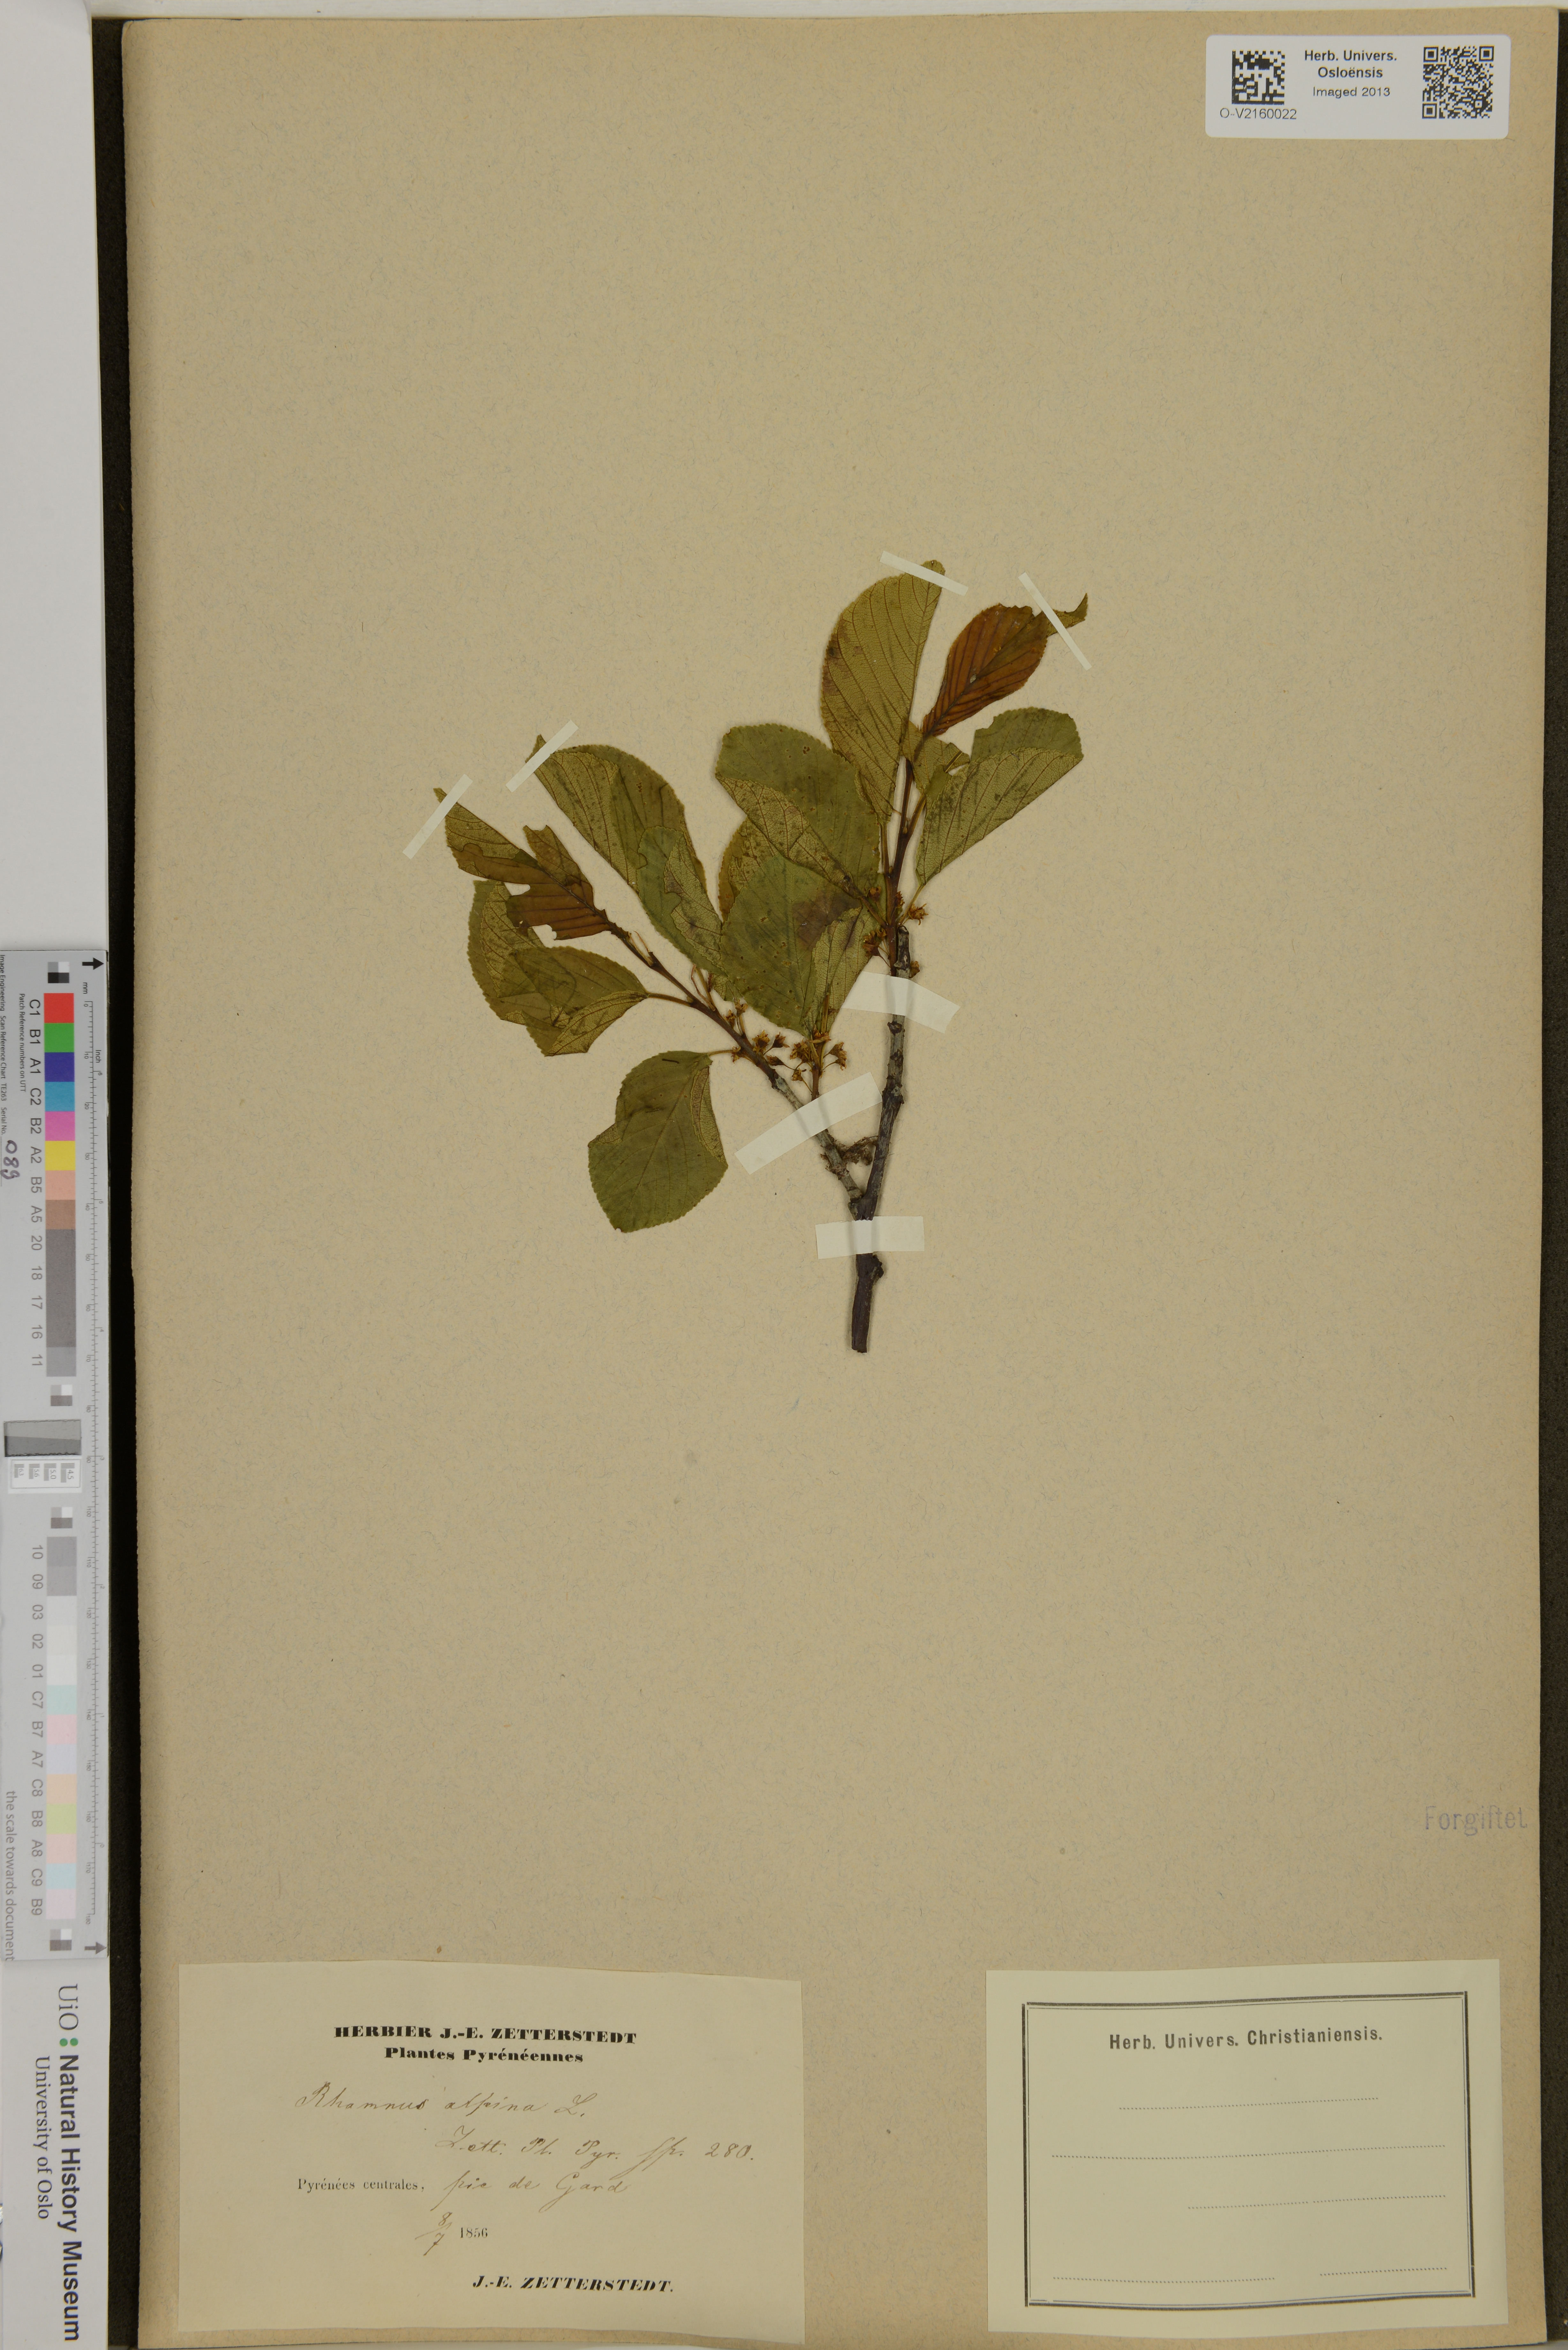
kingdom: Plantae
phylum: Tracheophyta
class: Magnoliopsida
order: Rosales
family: Rhamnaceae
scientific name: Rhamnaceae
